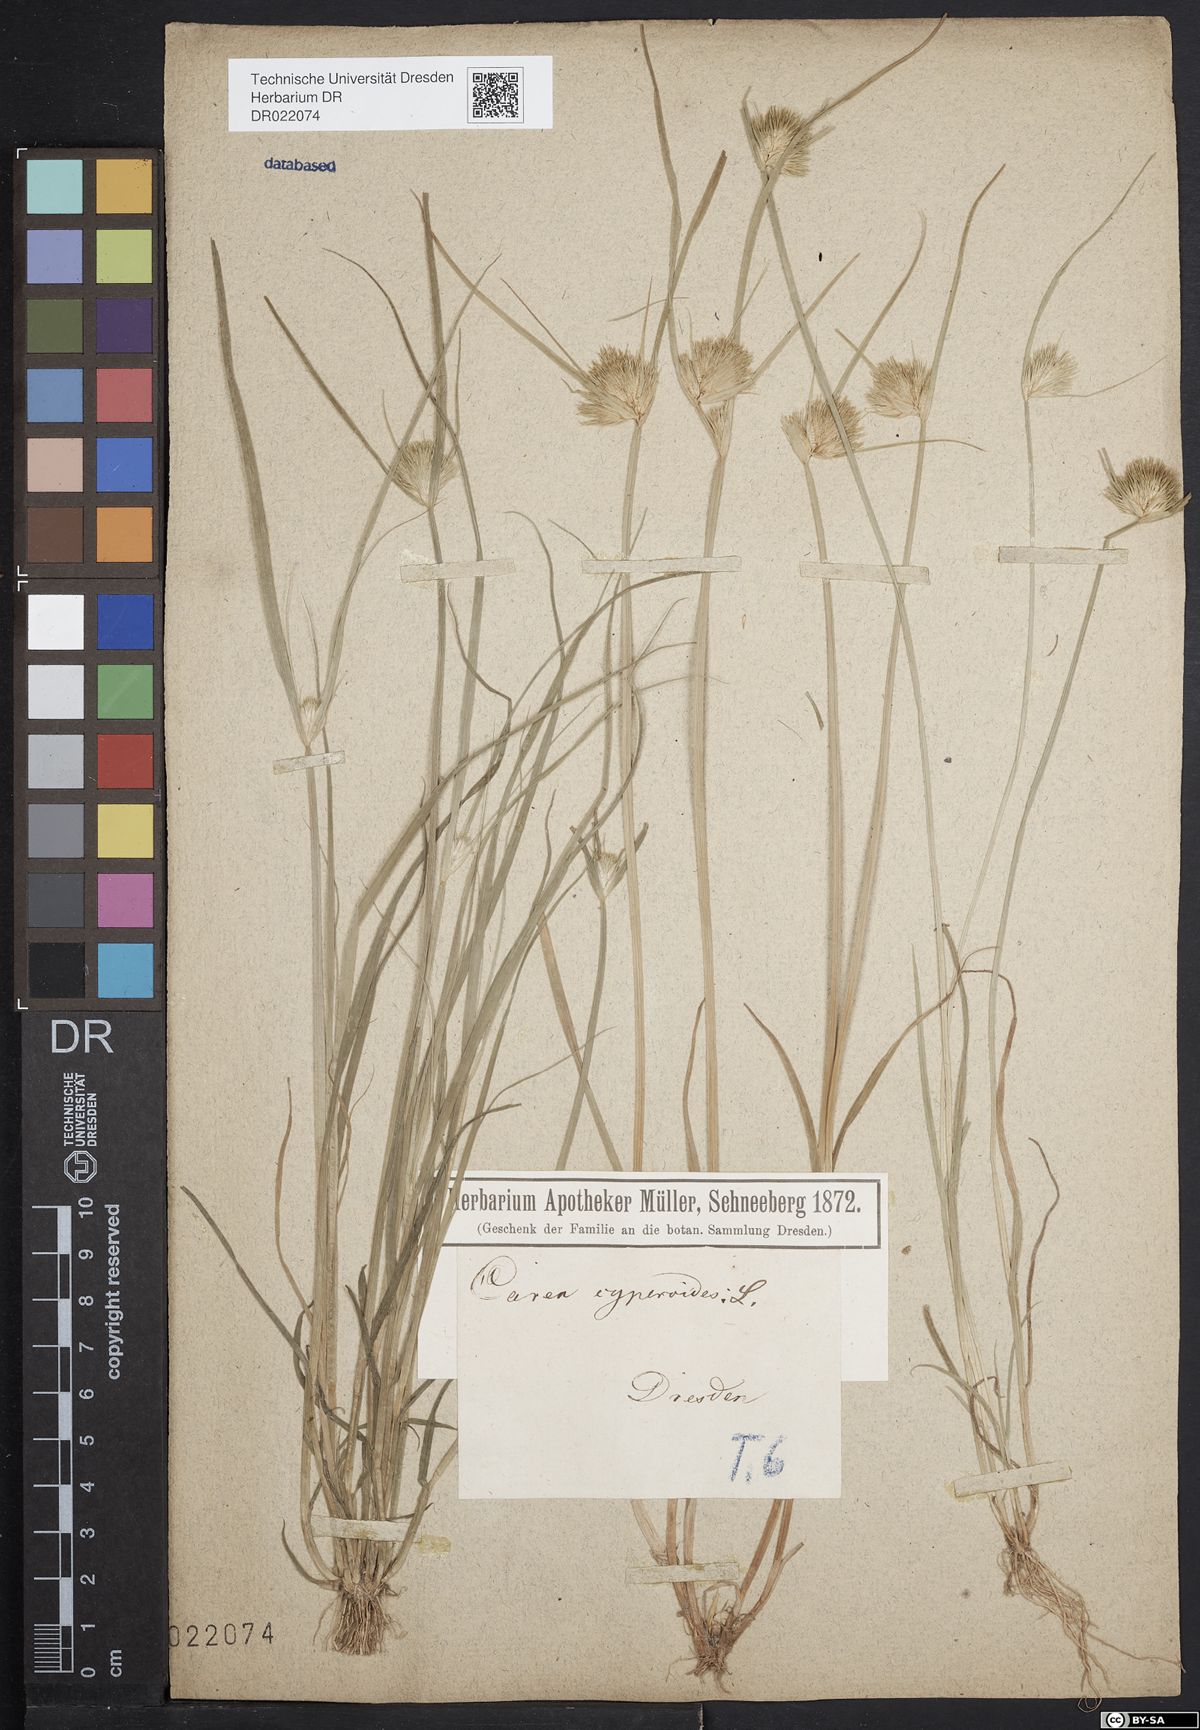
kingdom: Plantae
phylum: Tracheophyta
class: Liliopsida
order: Poales
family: Cyperaceae
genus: Carex
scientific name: Carex bohemica
